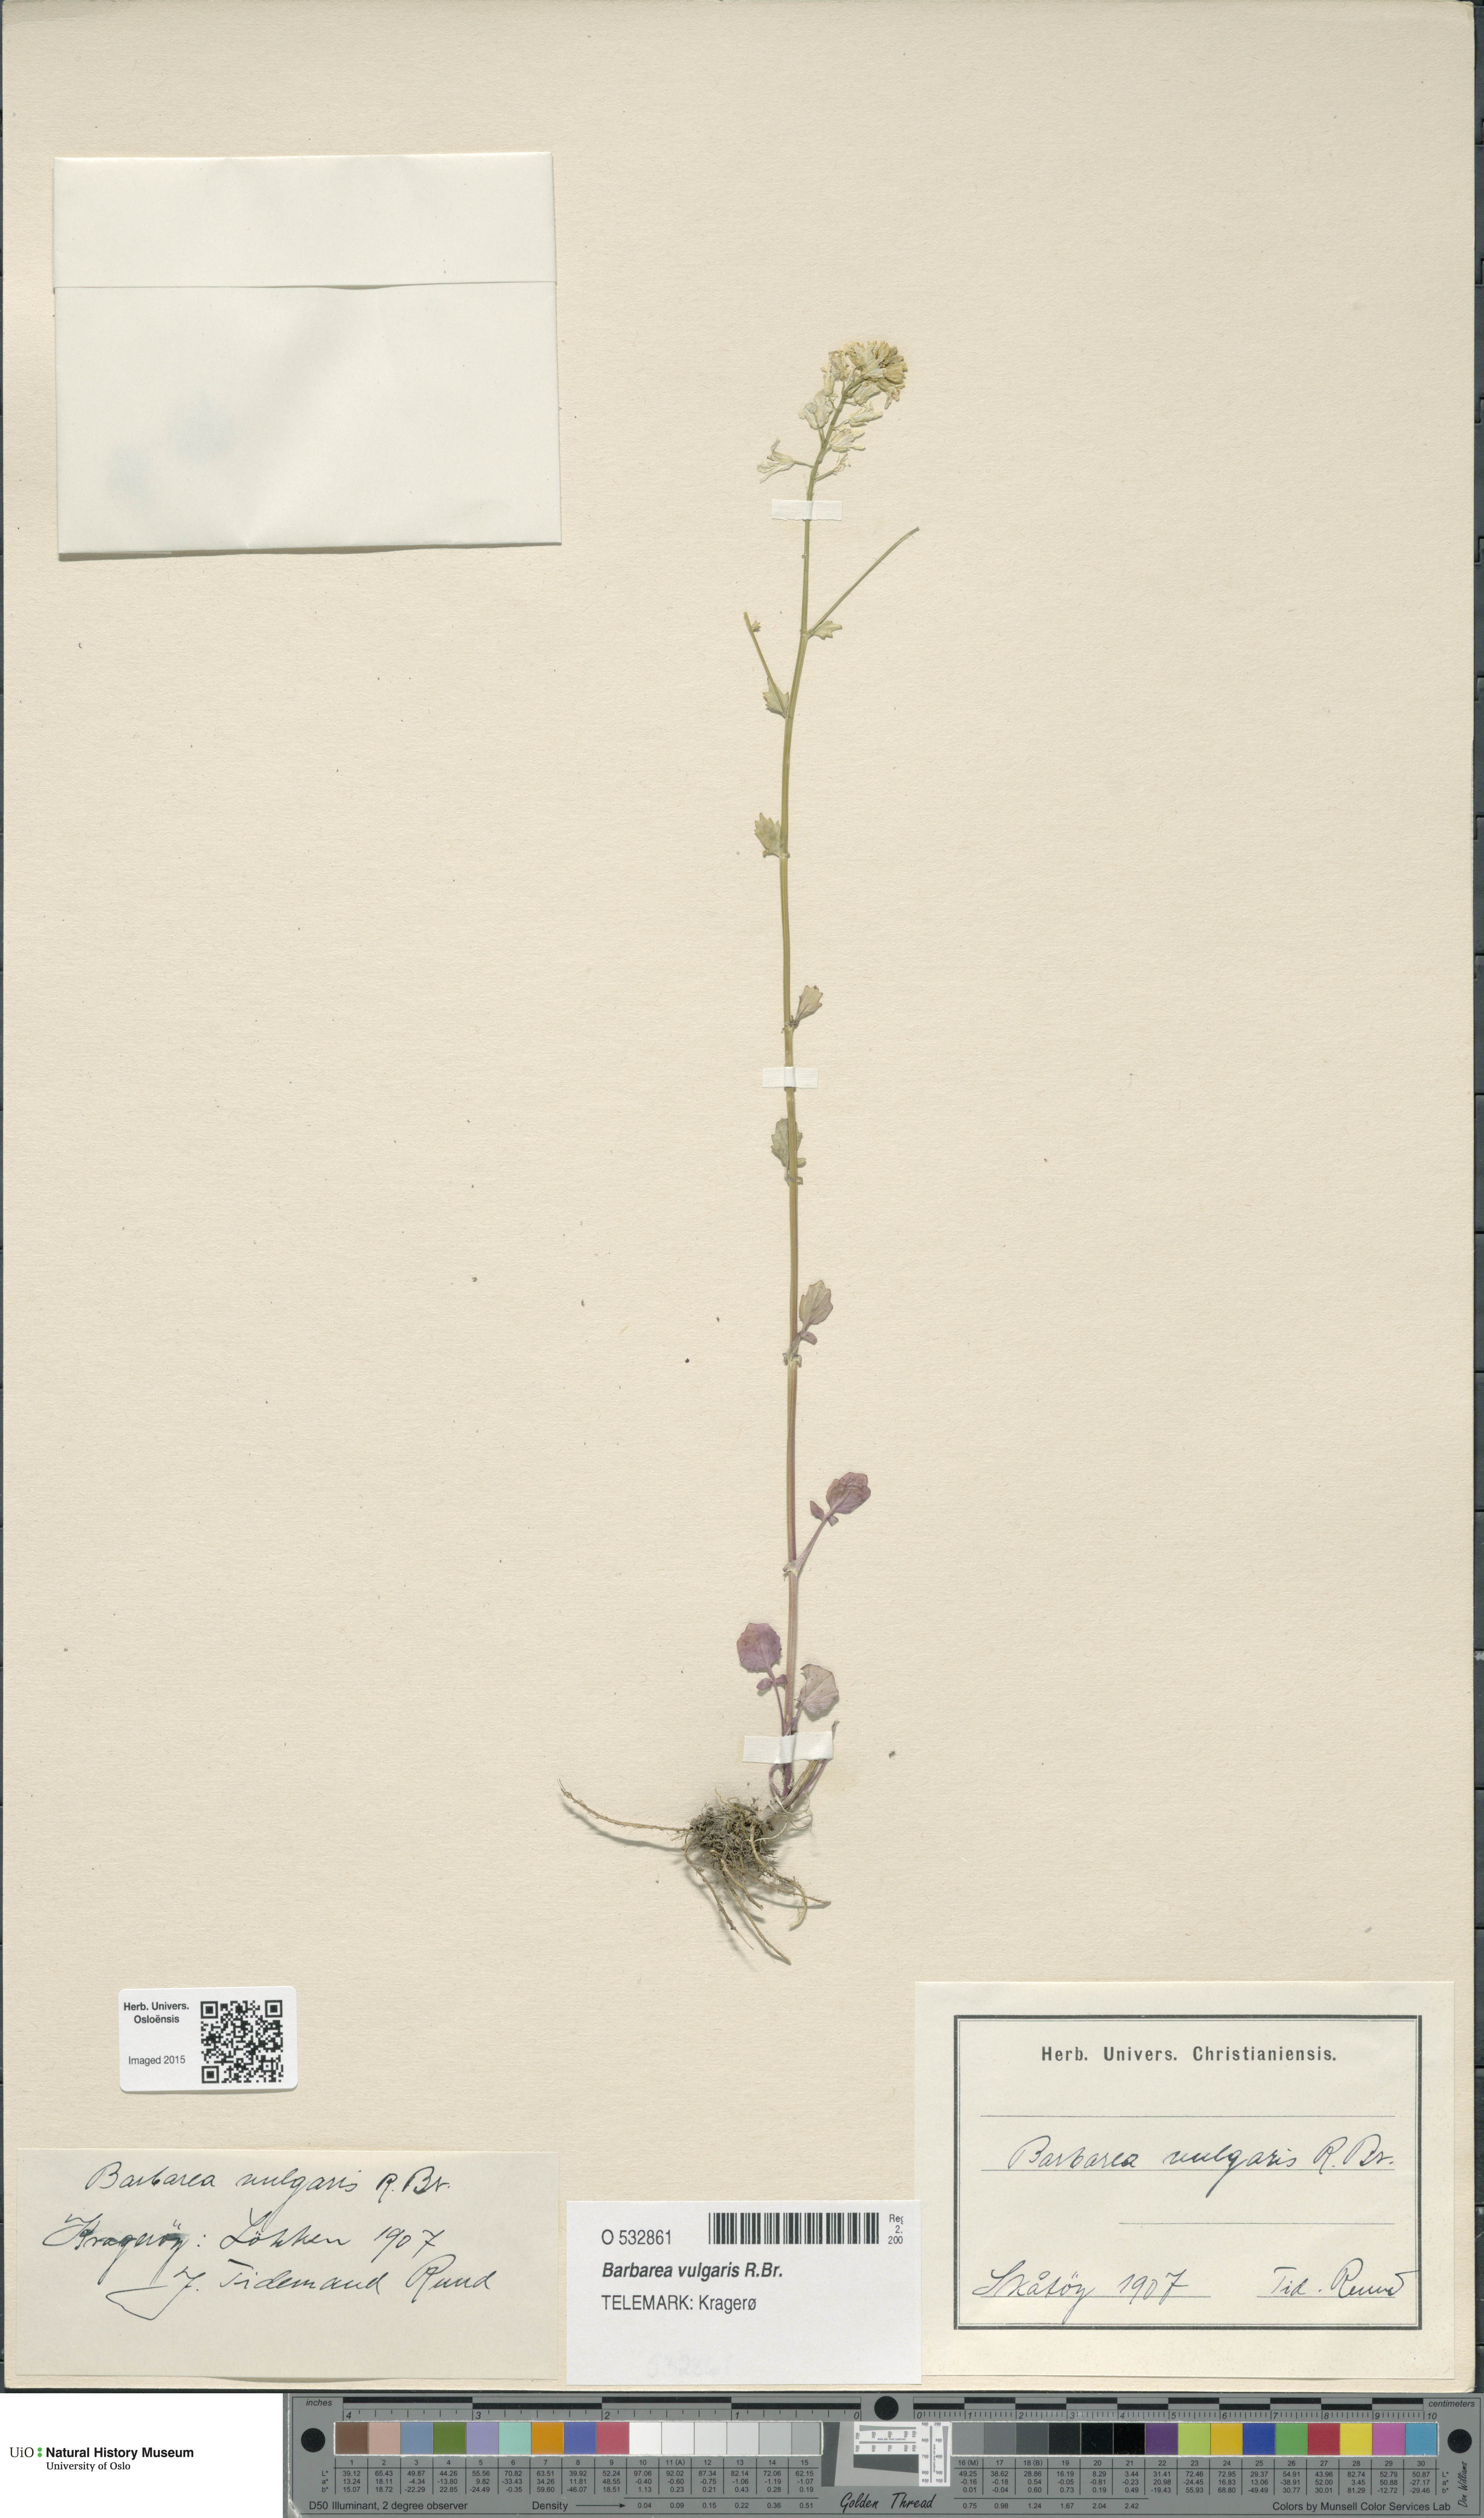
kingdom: Plantae
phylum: Tracheophyta
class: Magnoliopsida
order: Brassicales
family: Brassicaceae
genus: Barbarea
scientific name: Barbarea vulgaris
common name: Cressy-greens
